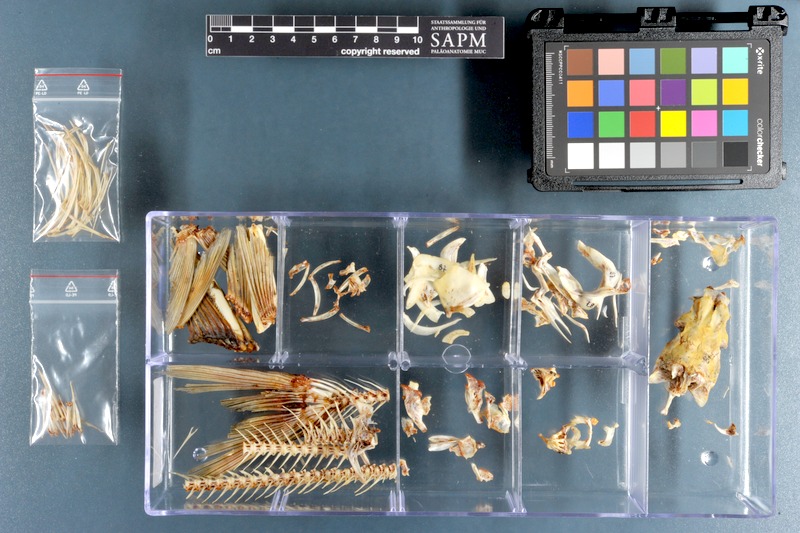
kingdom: Animalia
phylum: Chordata
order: Cypriniformes
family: Cyprinidae
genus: Capoeta
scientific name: Capoeta trutta
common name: Longspine scraper
